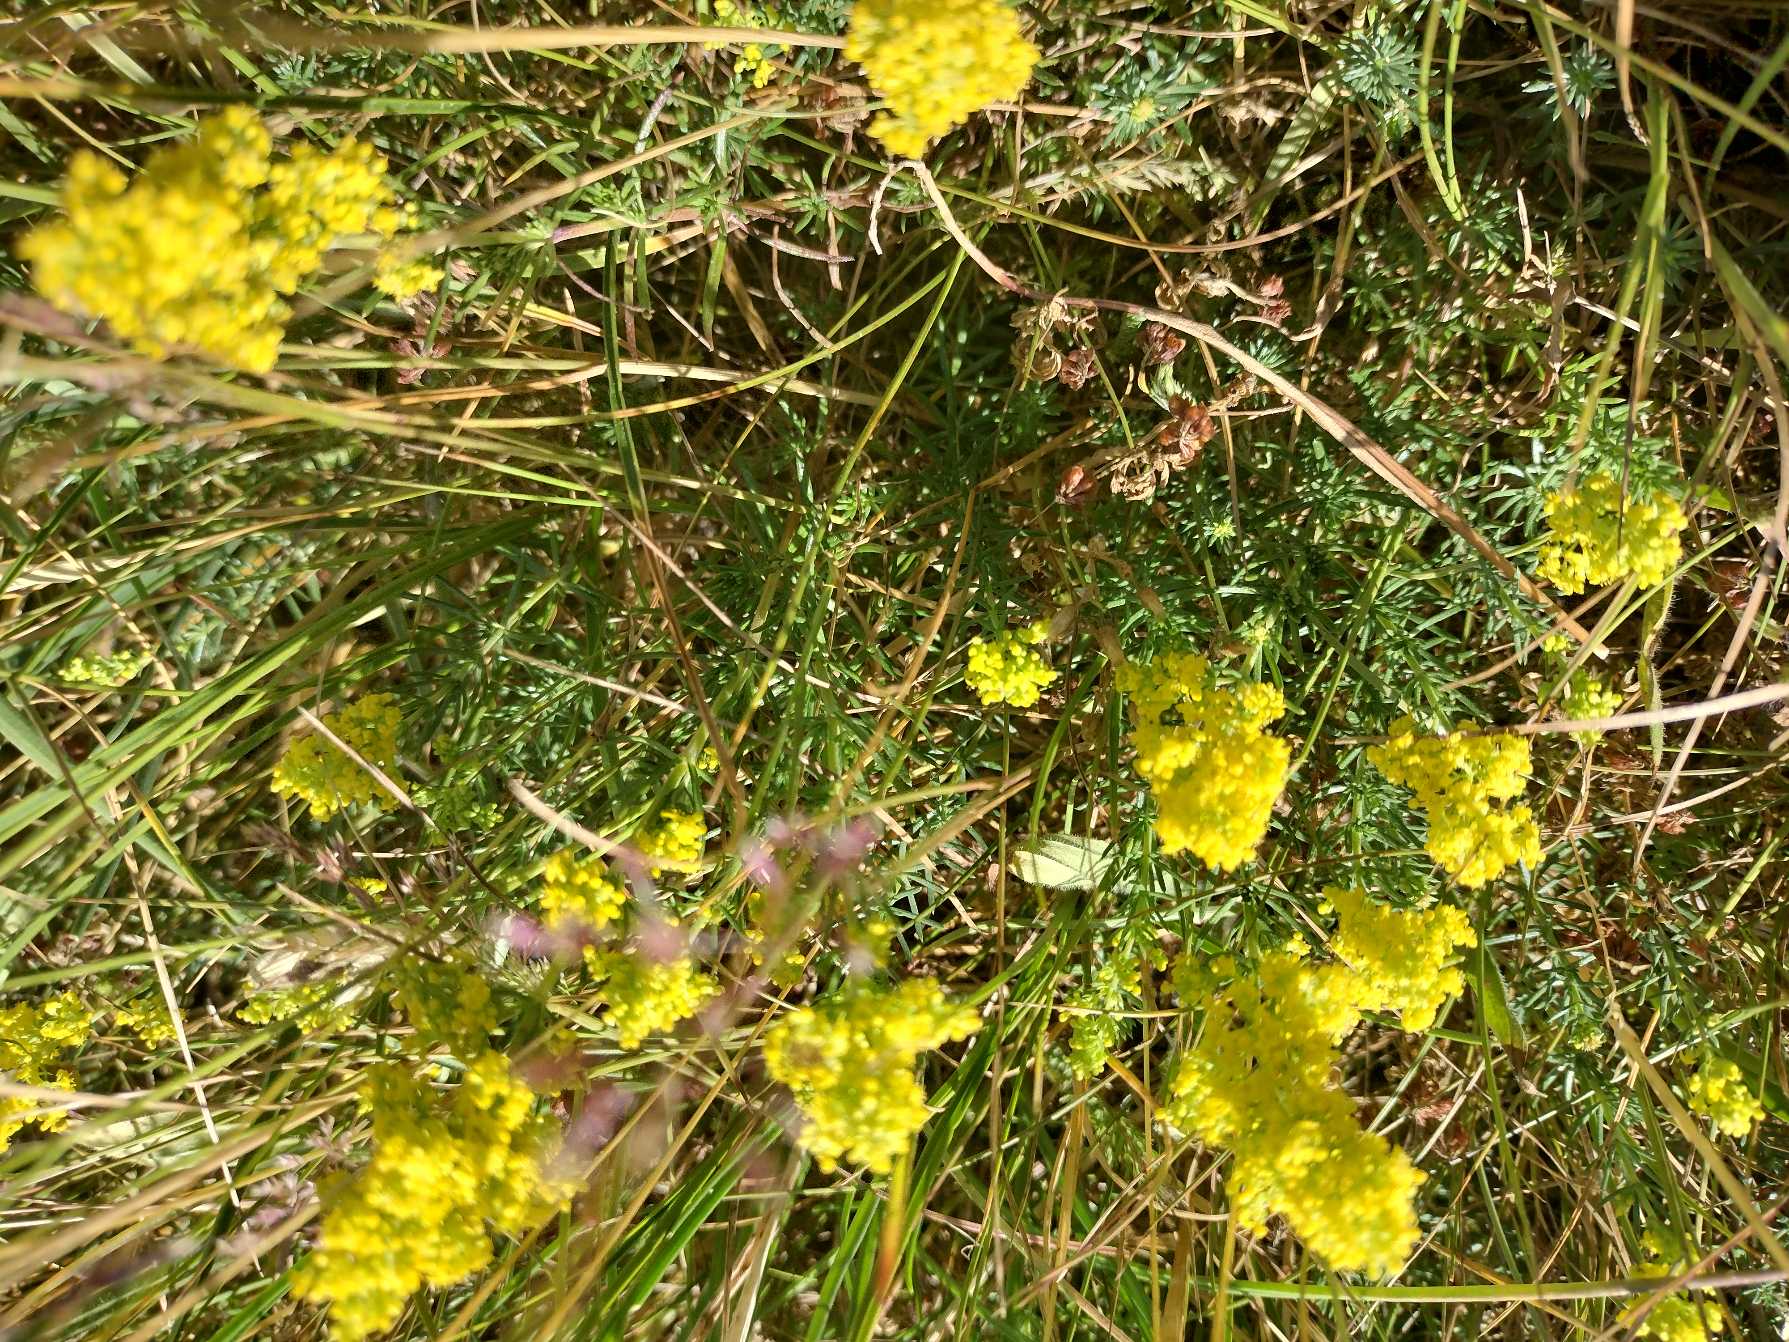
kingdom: Plantae
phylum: Tracheophyta
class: Magnoliopsida
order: Gentianales
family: Rubiaceae
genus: Galium
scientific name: Galium verum
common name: Gul snerre
